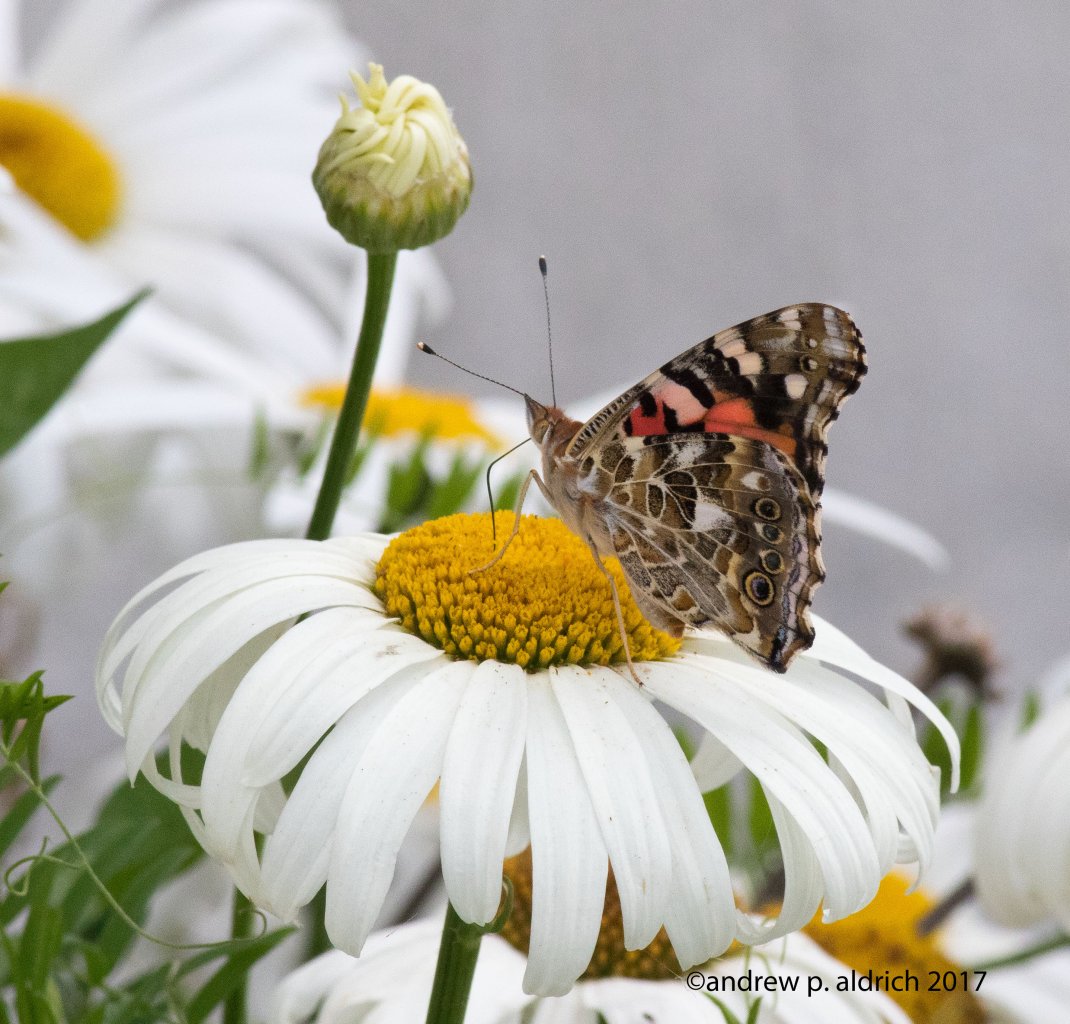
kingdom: Animalia
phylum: Arthropoda
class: Insecta
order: Lepidoptera
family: Nymphalidae
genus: Vanessa
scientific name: Vanessa cardui
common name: Painted Lady
